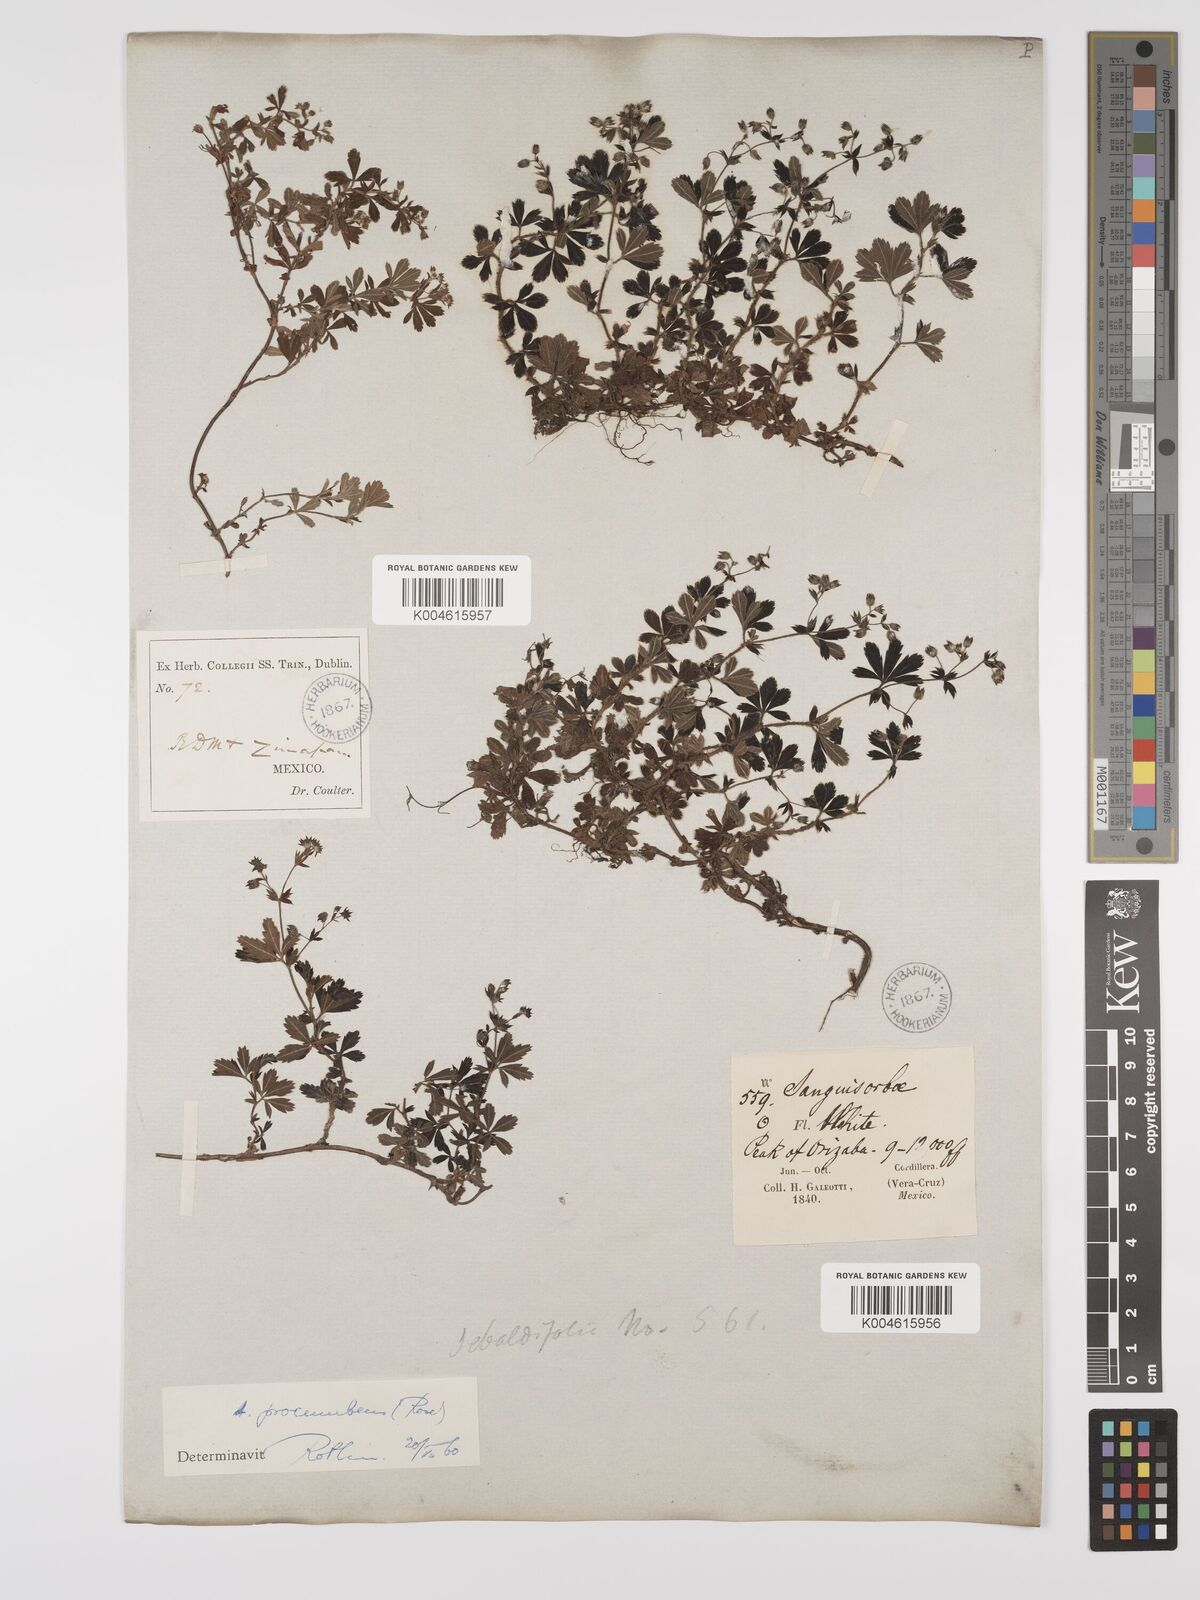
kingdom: Plantae
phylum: Tracheophyta
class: Magnoliopsida
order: Rosales
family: Rosaceae
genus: Lachemilla
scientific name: Lachemilla procumbens
